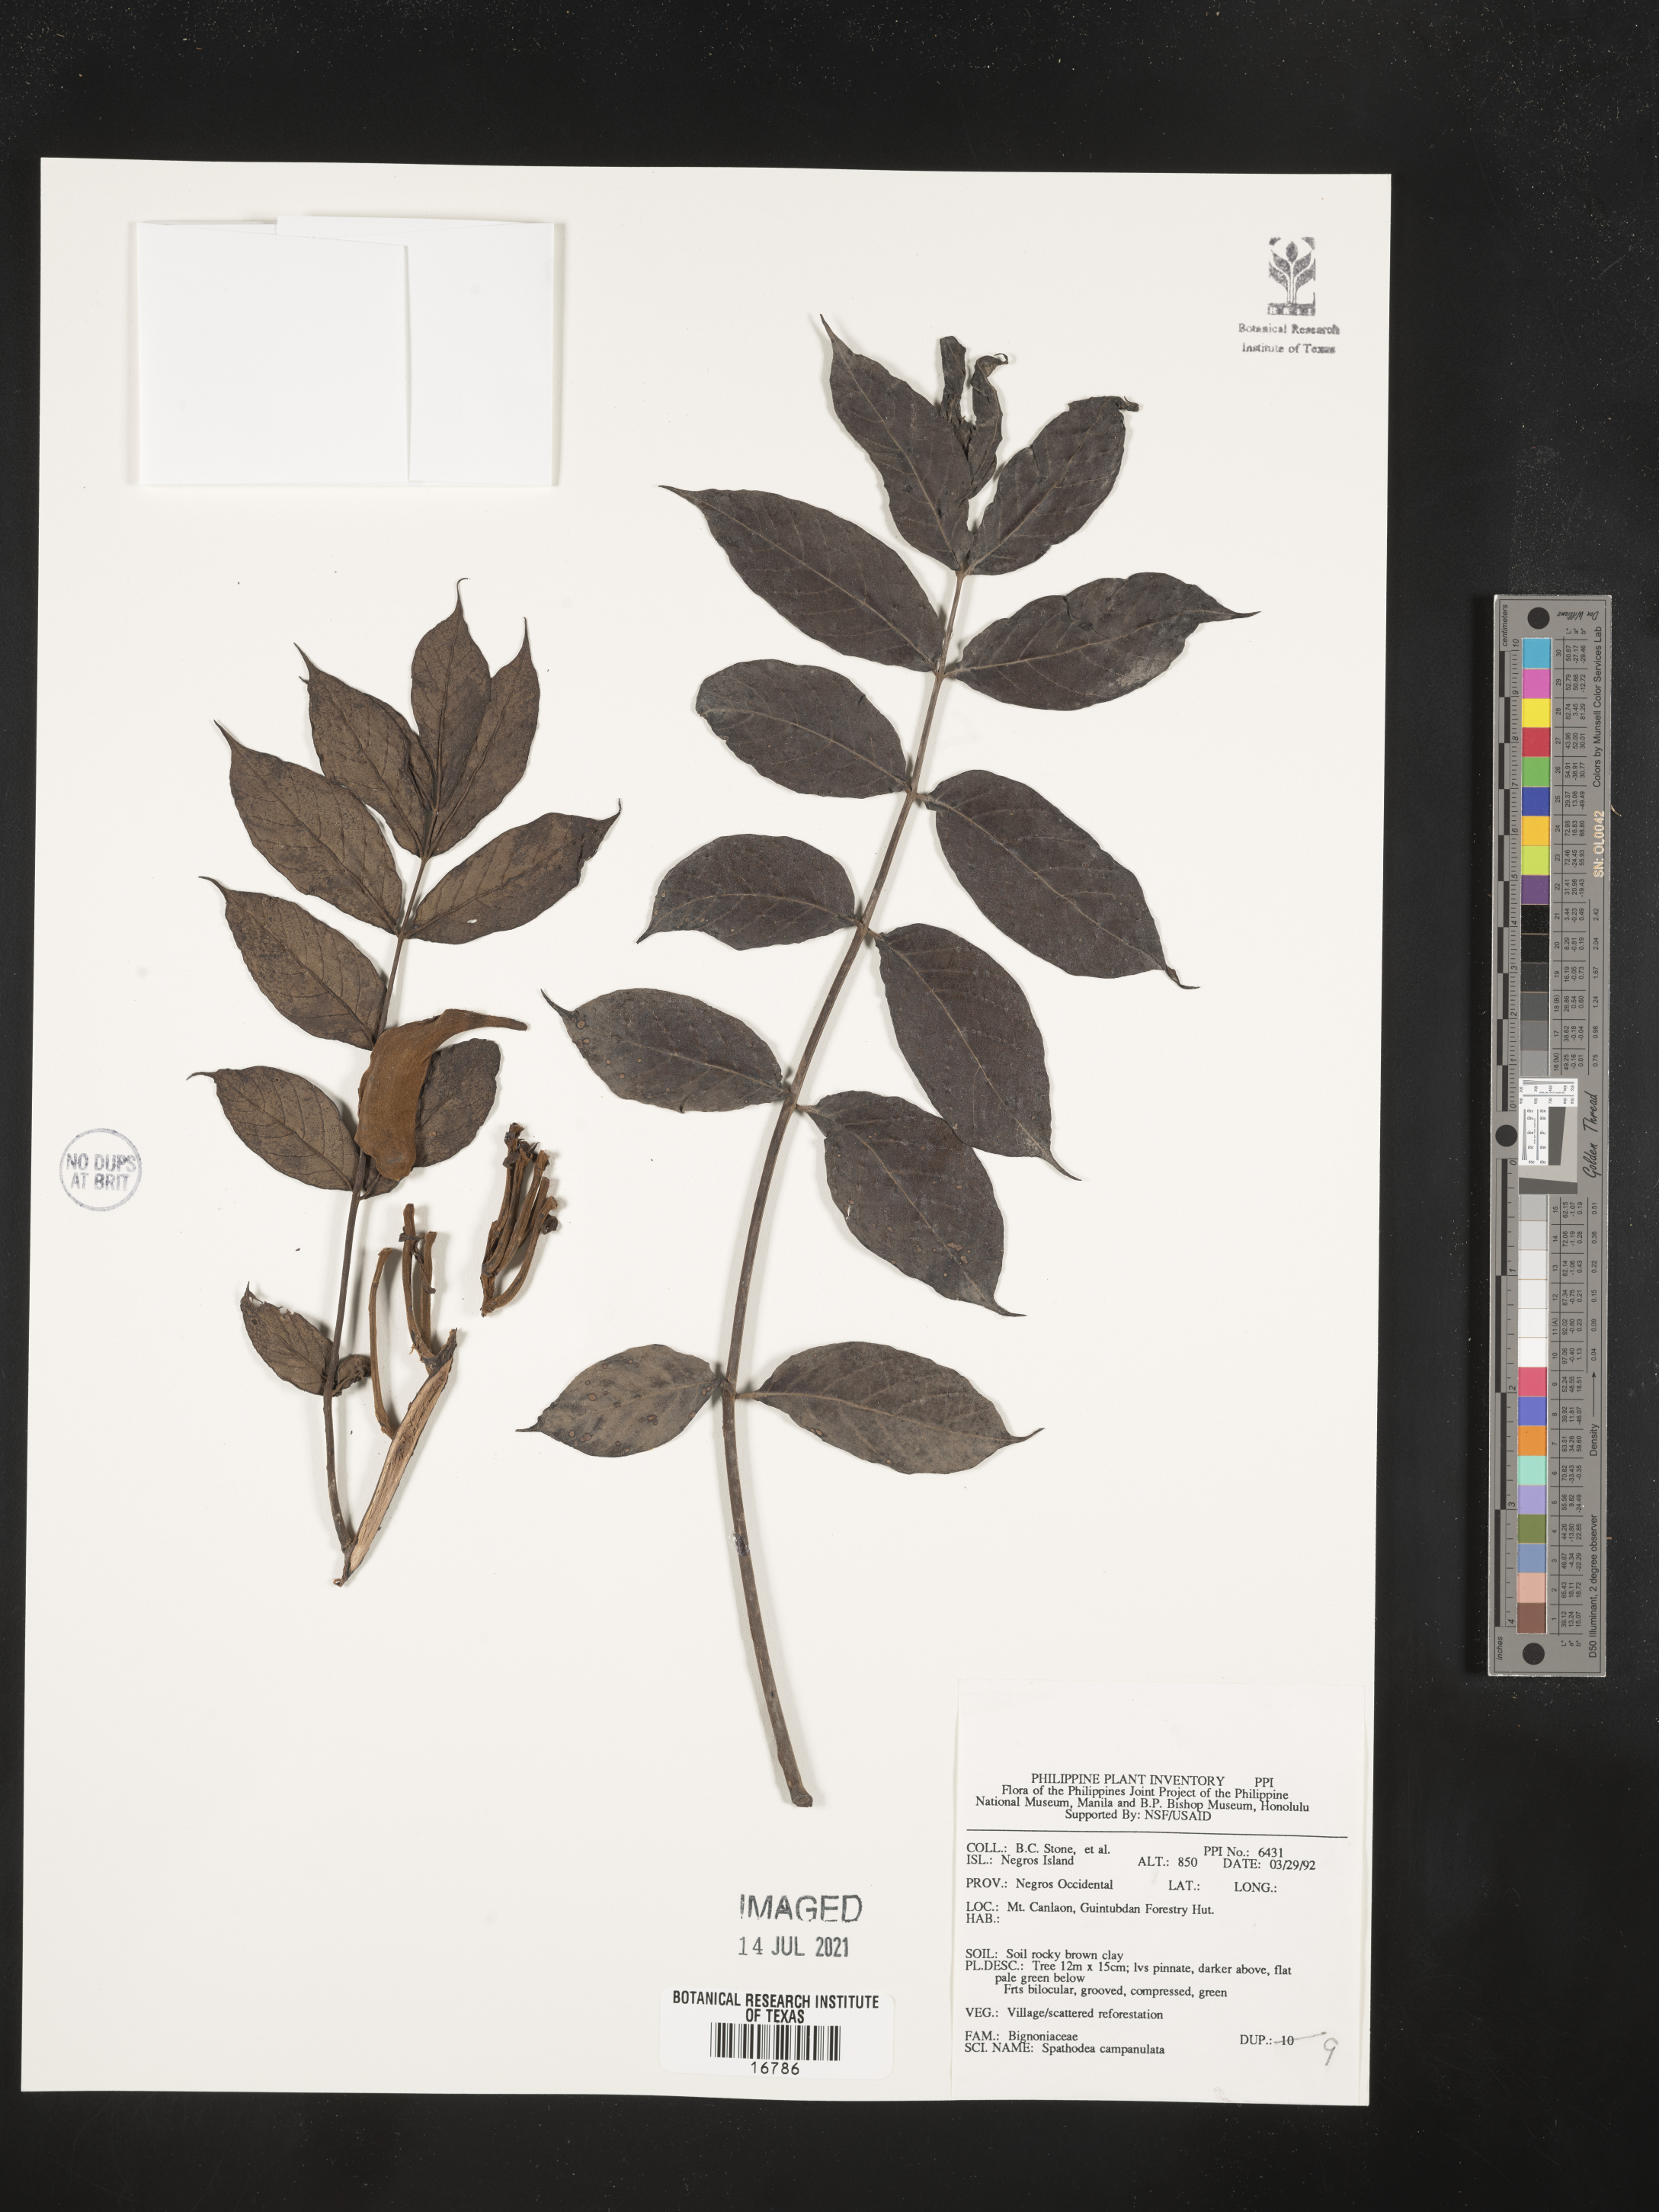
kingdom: Plantae
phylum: Tracheophyta
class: Magnoliopsida
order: Lamiales
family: Bignoniaceae
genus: Spathodea
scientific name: Spathodea campanulata
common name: African tuliptree
